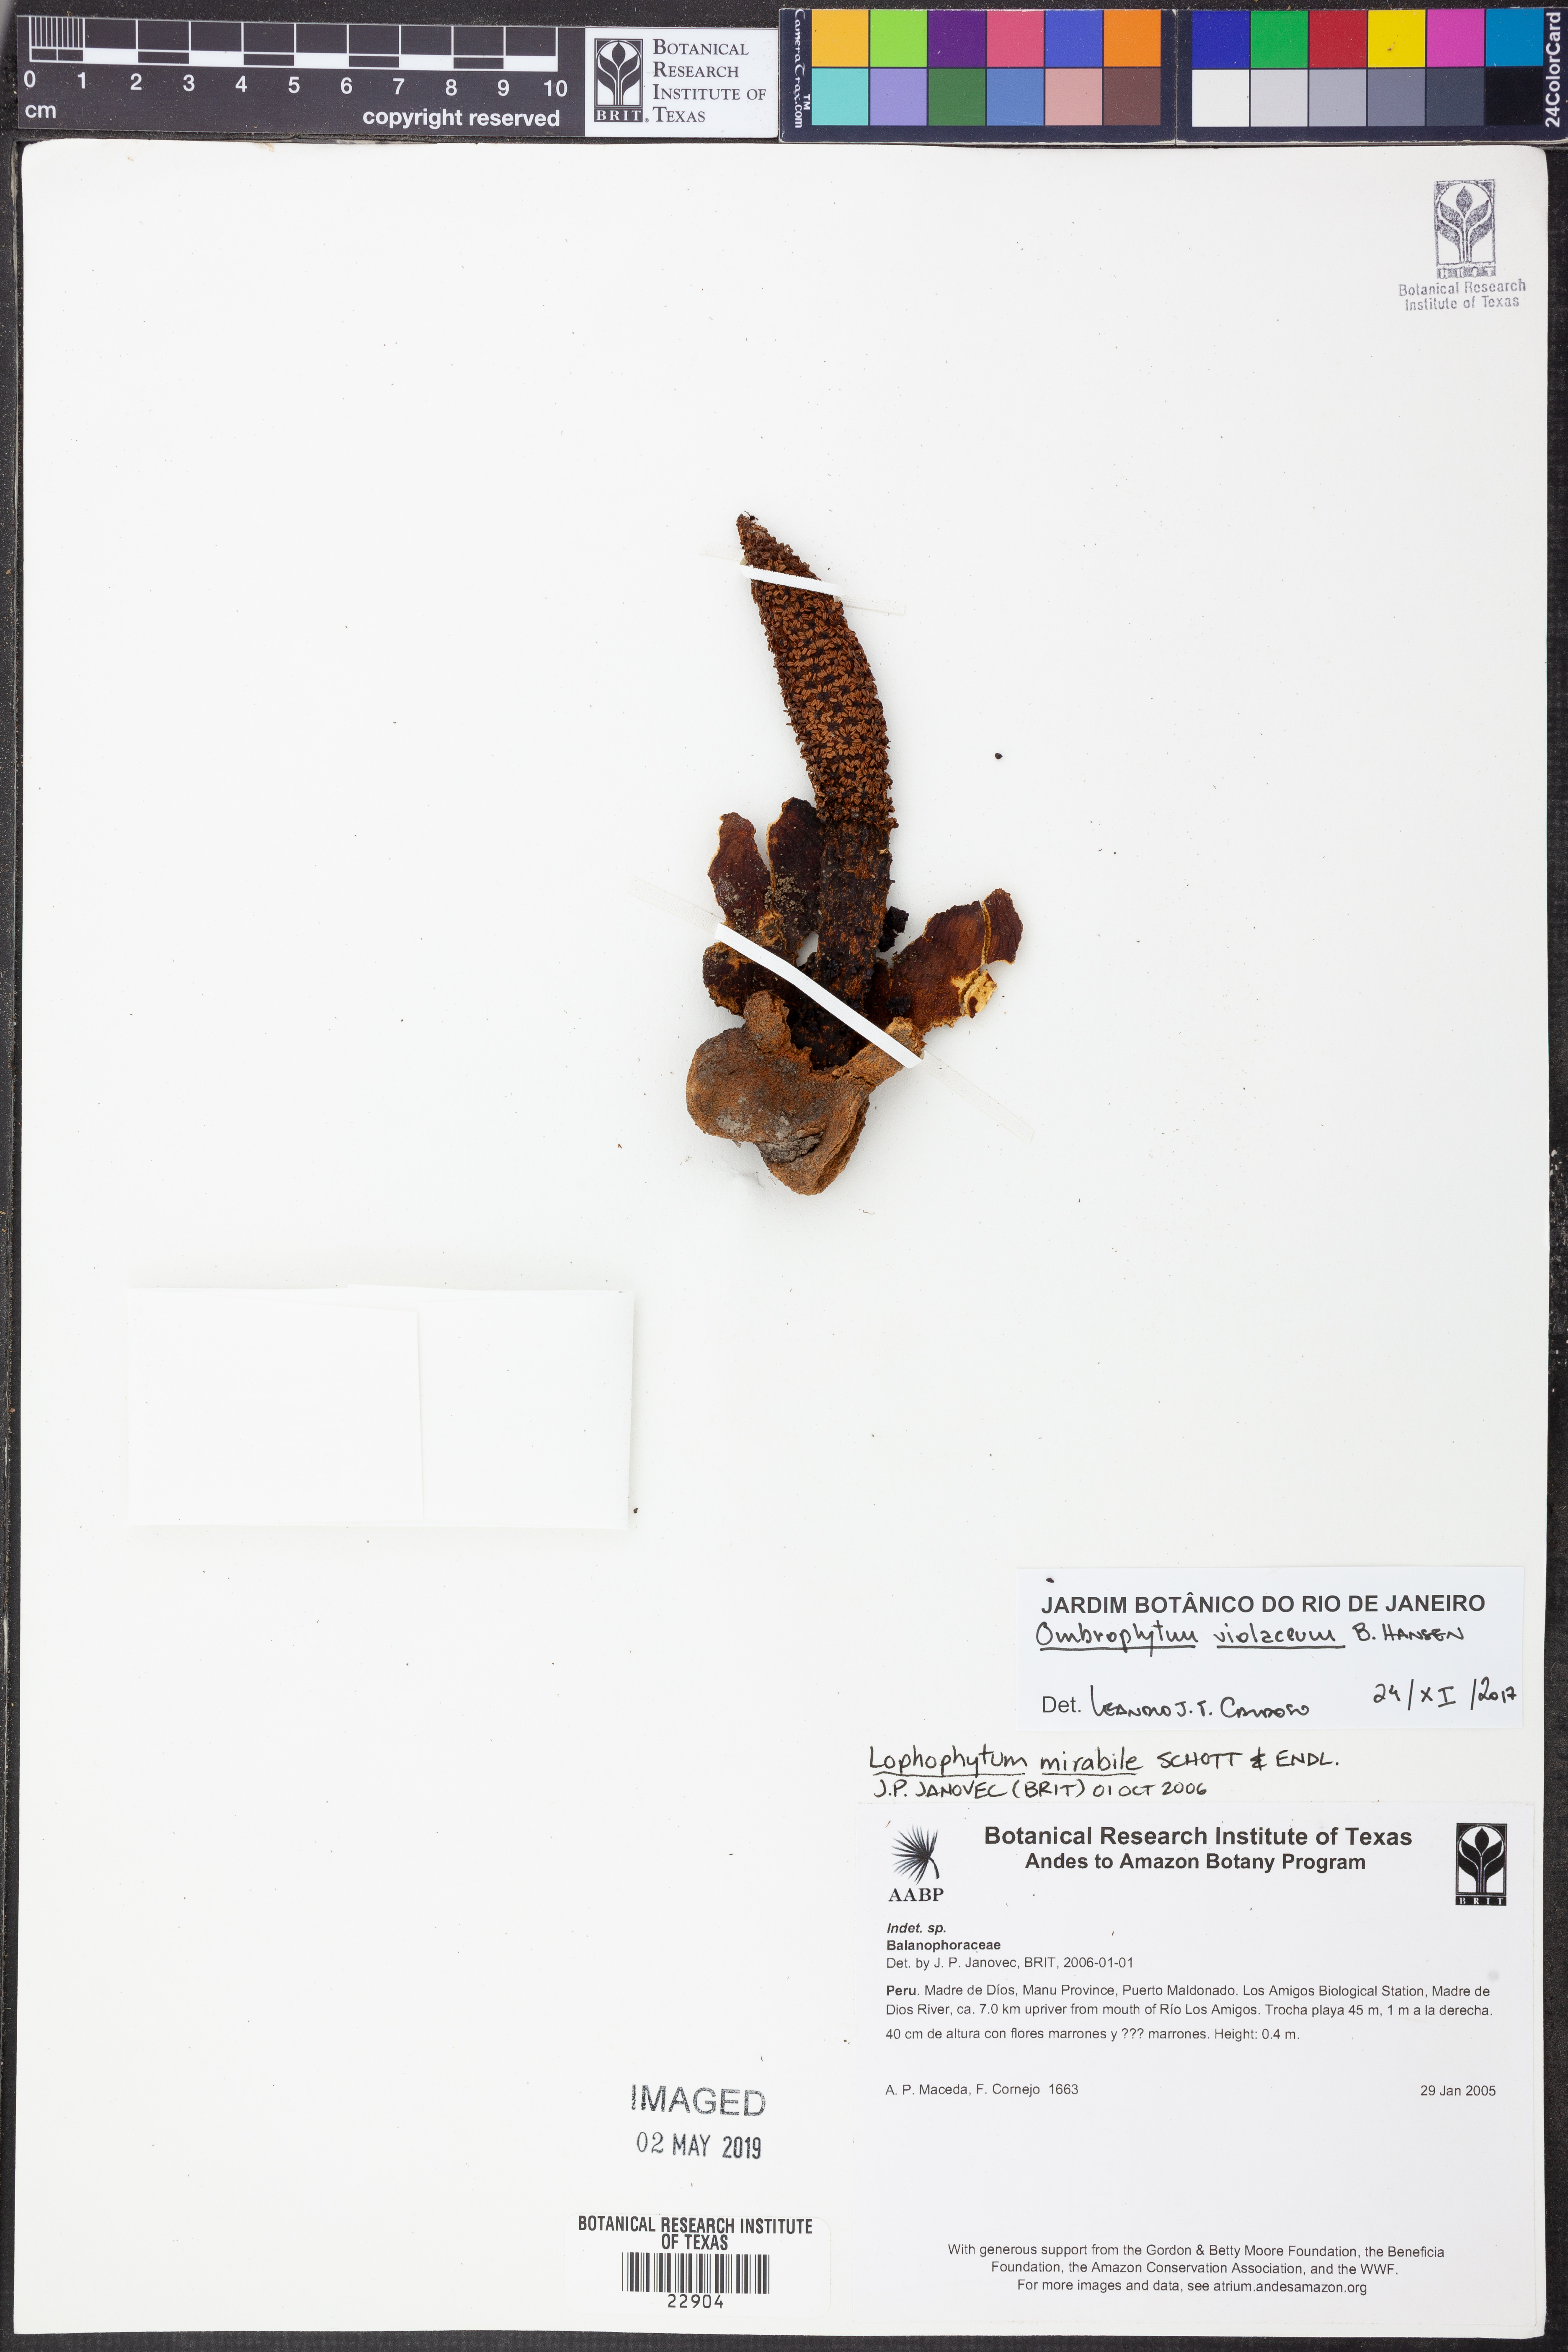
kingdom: Plantae
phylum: Tracheophyta
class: Magnoliopsida
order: Santalales
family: Balanophoraceae
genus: Ombrophytum
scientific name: Ombrophytum violaceum
